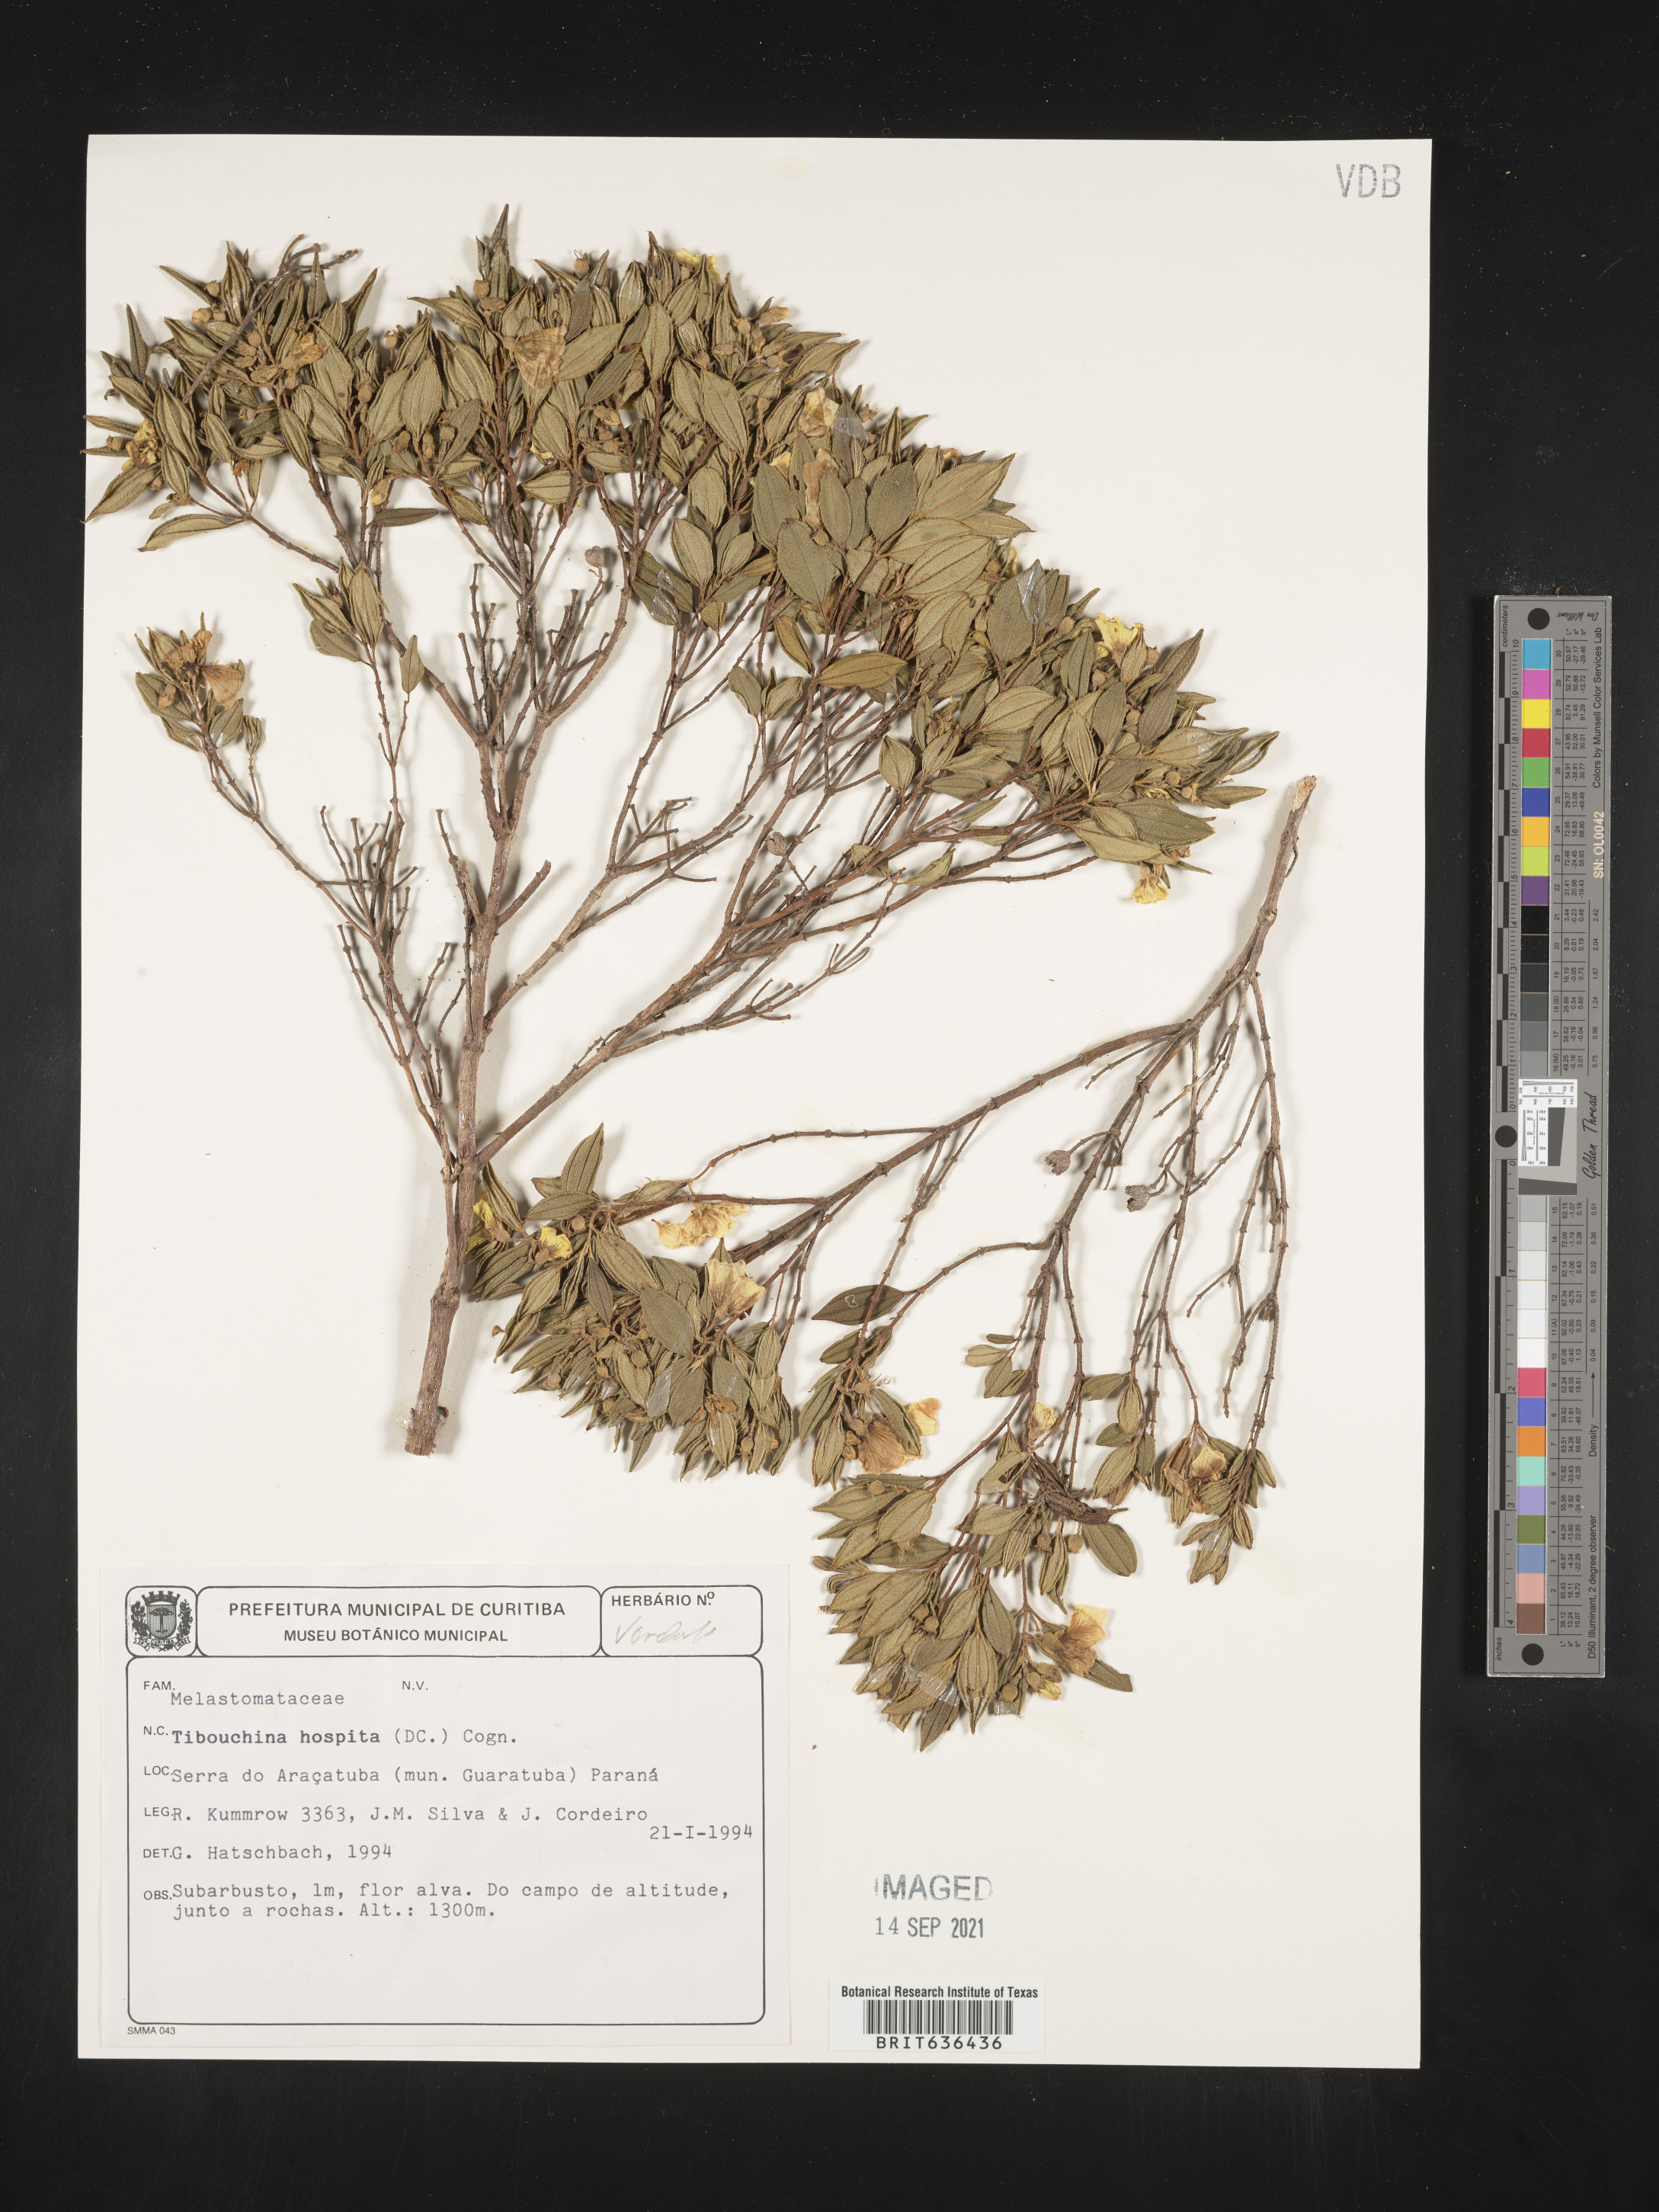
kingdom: Plantae
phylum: Tracheophyta
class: Magnoliopsida
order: Myrtales
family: Melastomataceae
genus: Tibouchina
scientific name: Tibouchina
